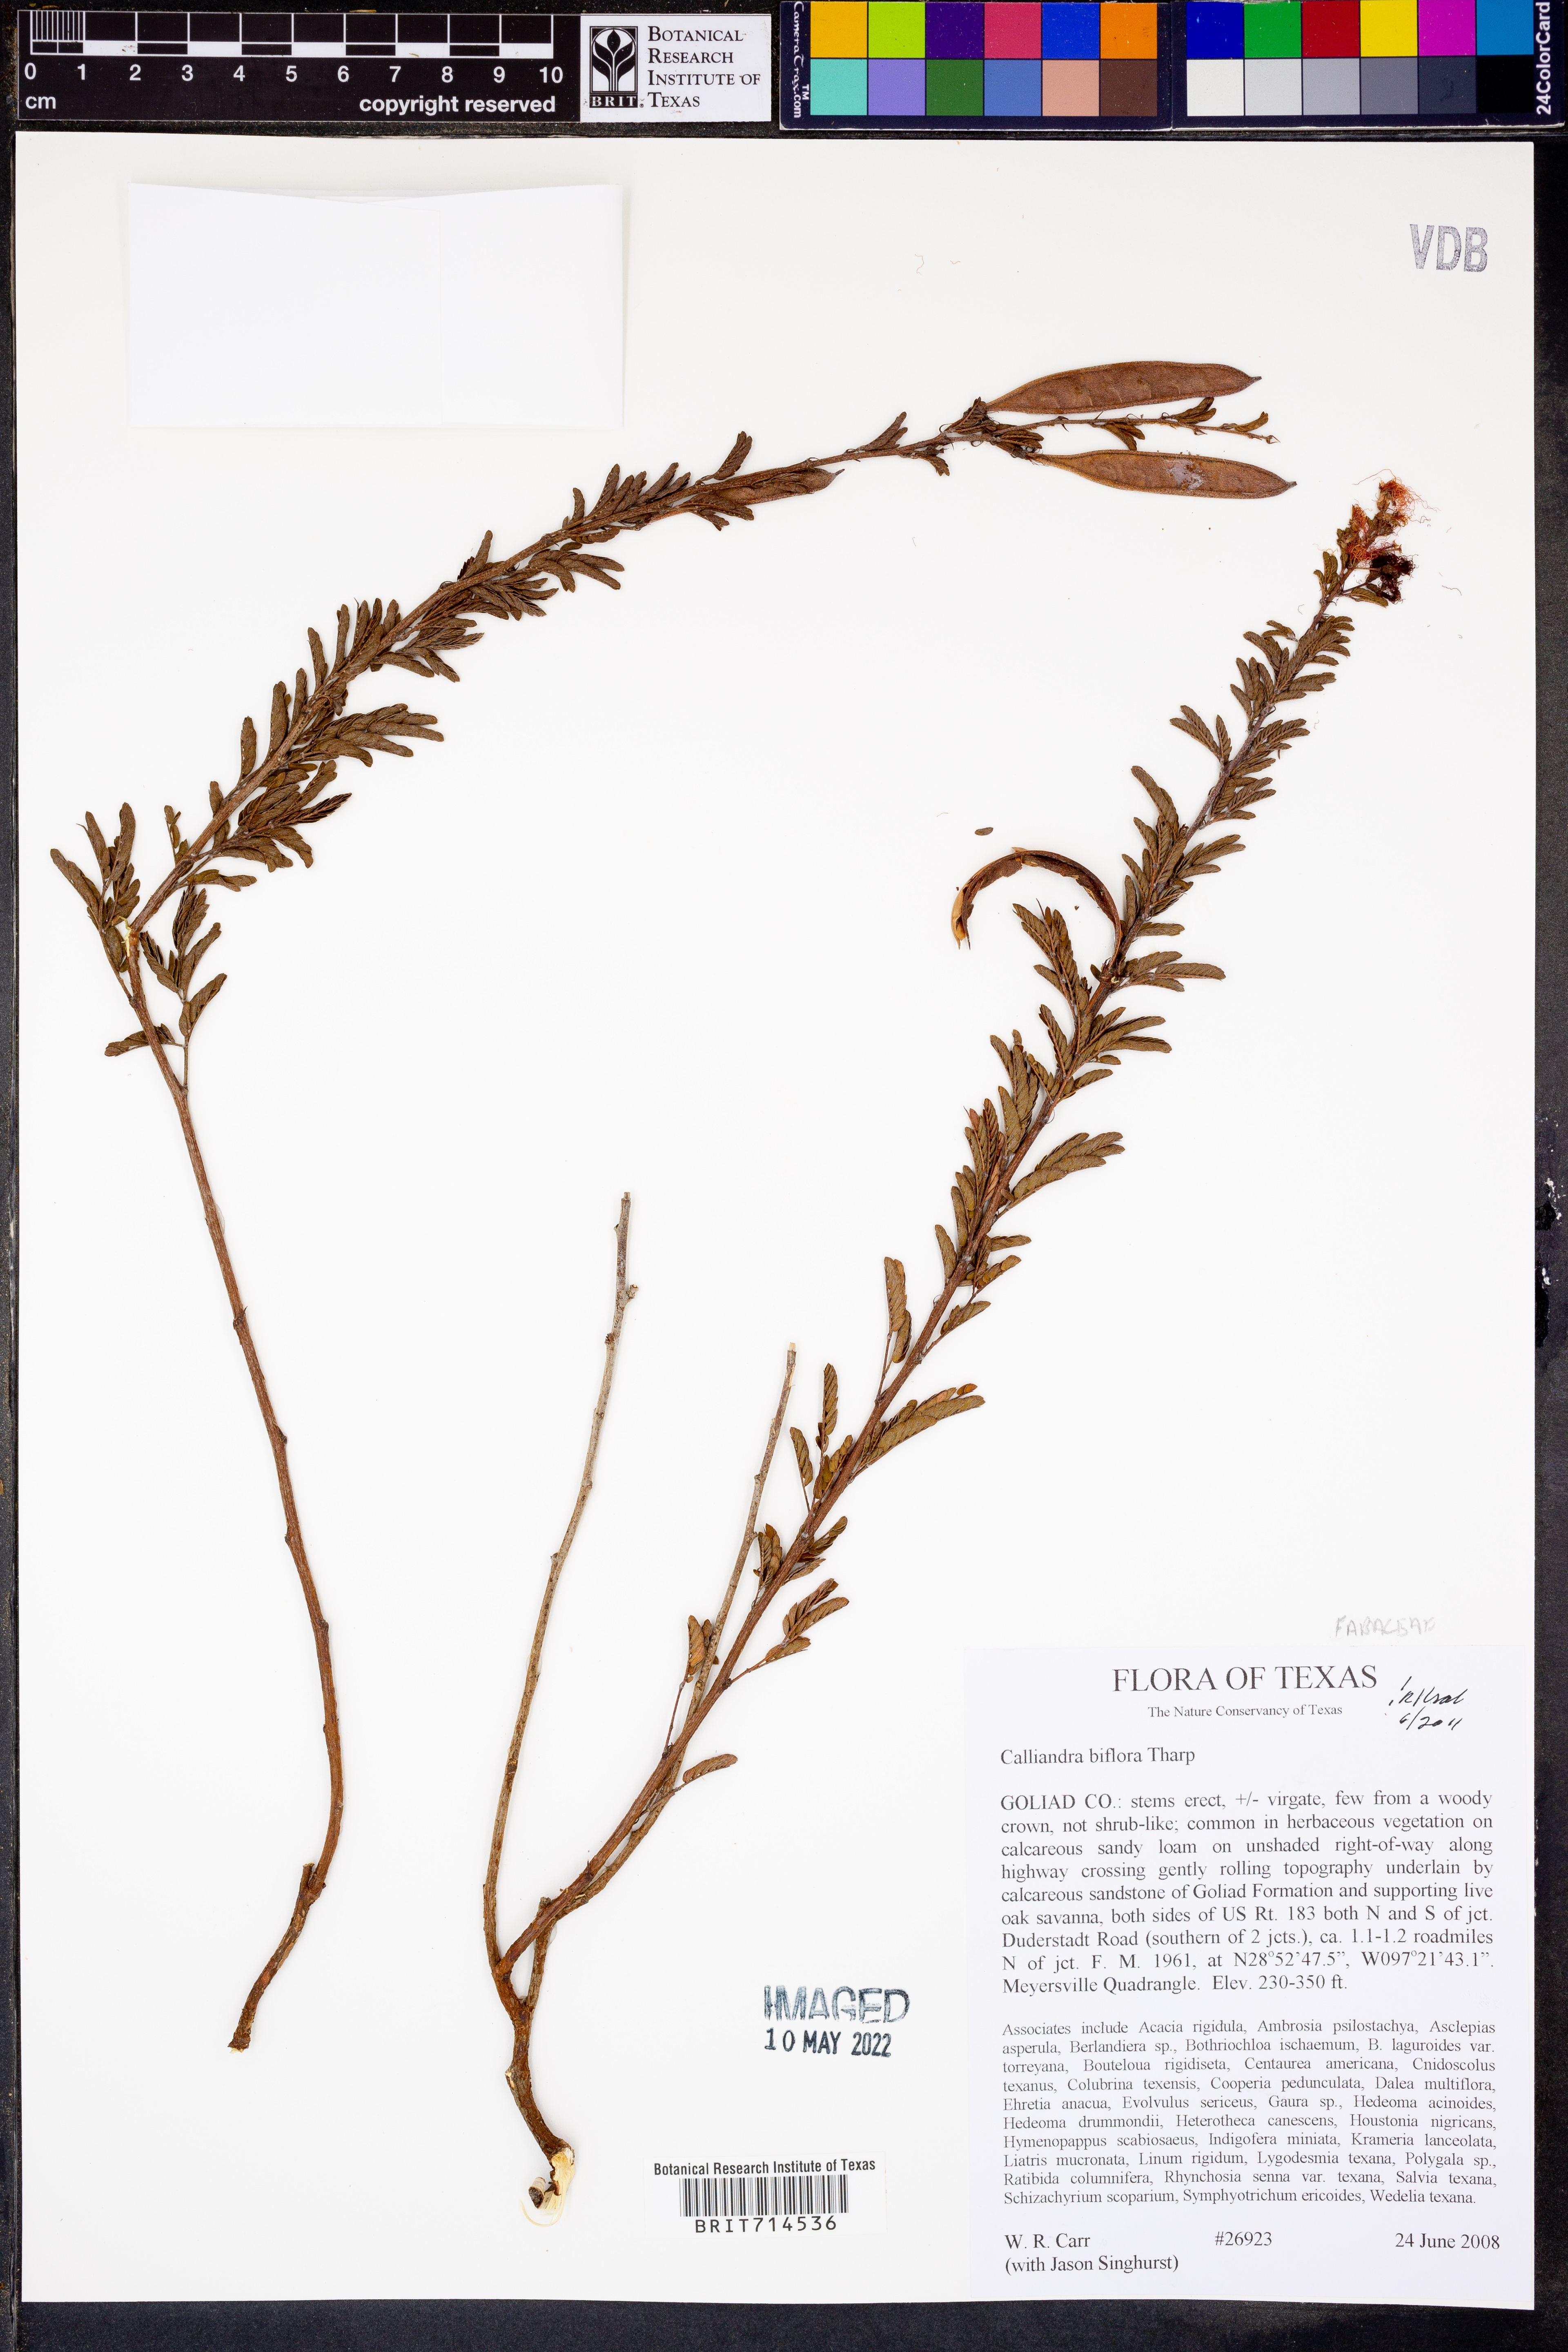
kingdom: Plantae
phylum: Tracheophyta
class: Magnoliopsida
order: Fabales
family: Fabaceae
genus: Calliandra
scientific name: Calliandra biflora
